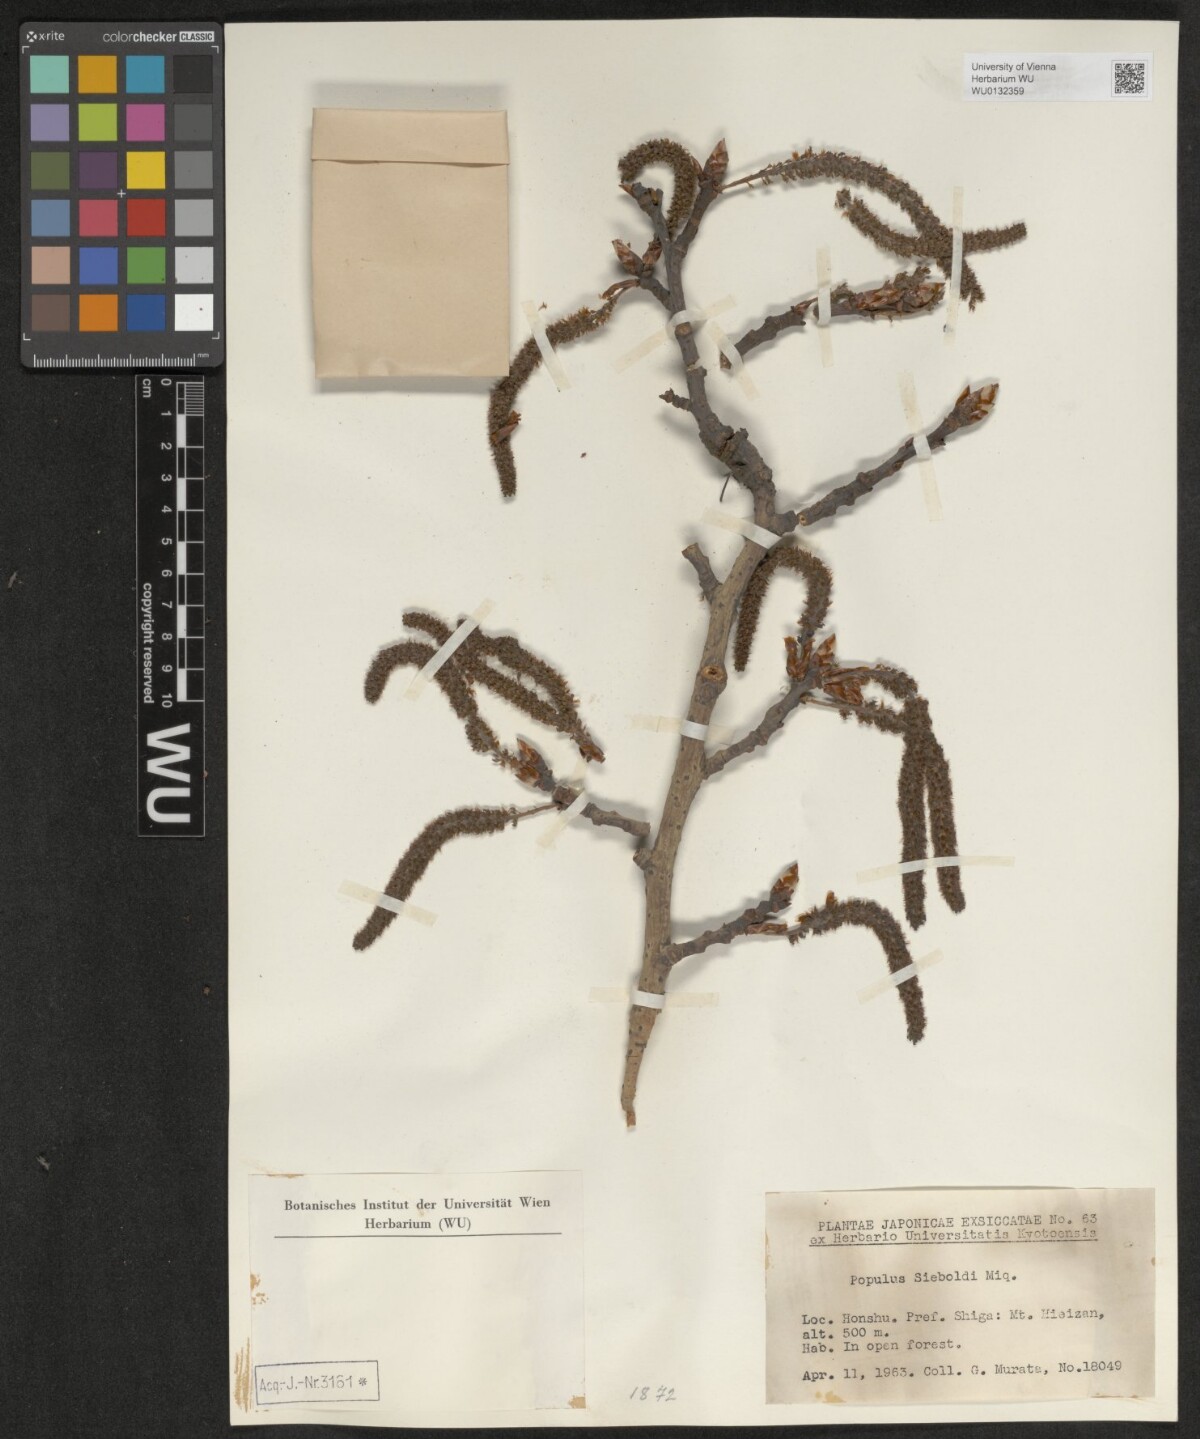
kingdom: Plantae
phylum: Tracheophyta
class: Magnoliopsida
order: Malpighiales
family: Salicaceae
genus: Populus
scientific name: Populus sieboldii
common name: Japanese aspen
